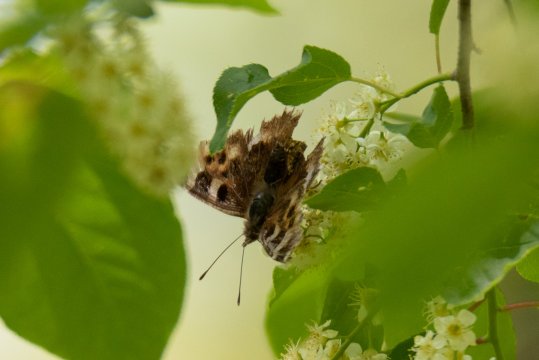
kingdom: Animalia
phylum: Arthropoda
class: Insecta
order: Lepidoptera
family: Nymphalidae
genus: Polygonia
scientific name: Polygonia vaualbum
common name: Compton Tortoiseshell
